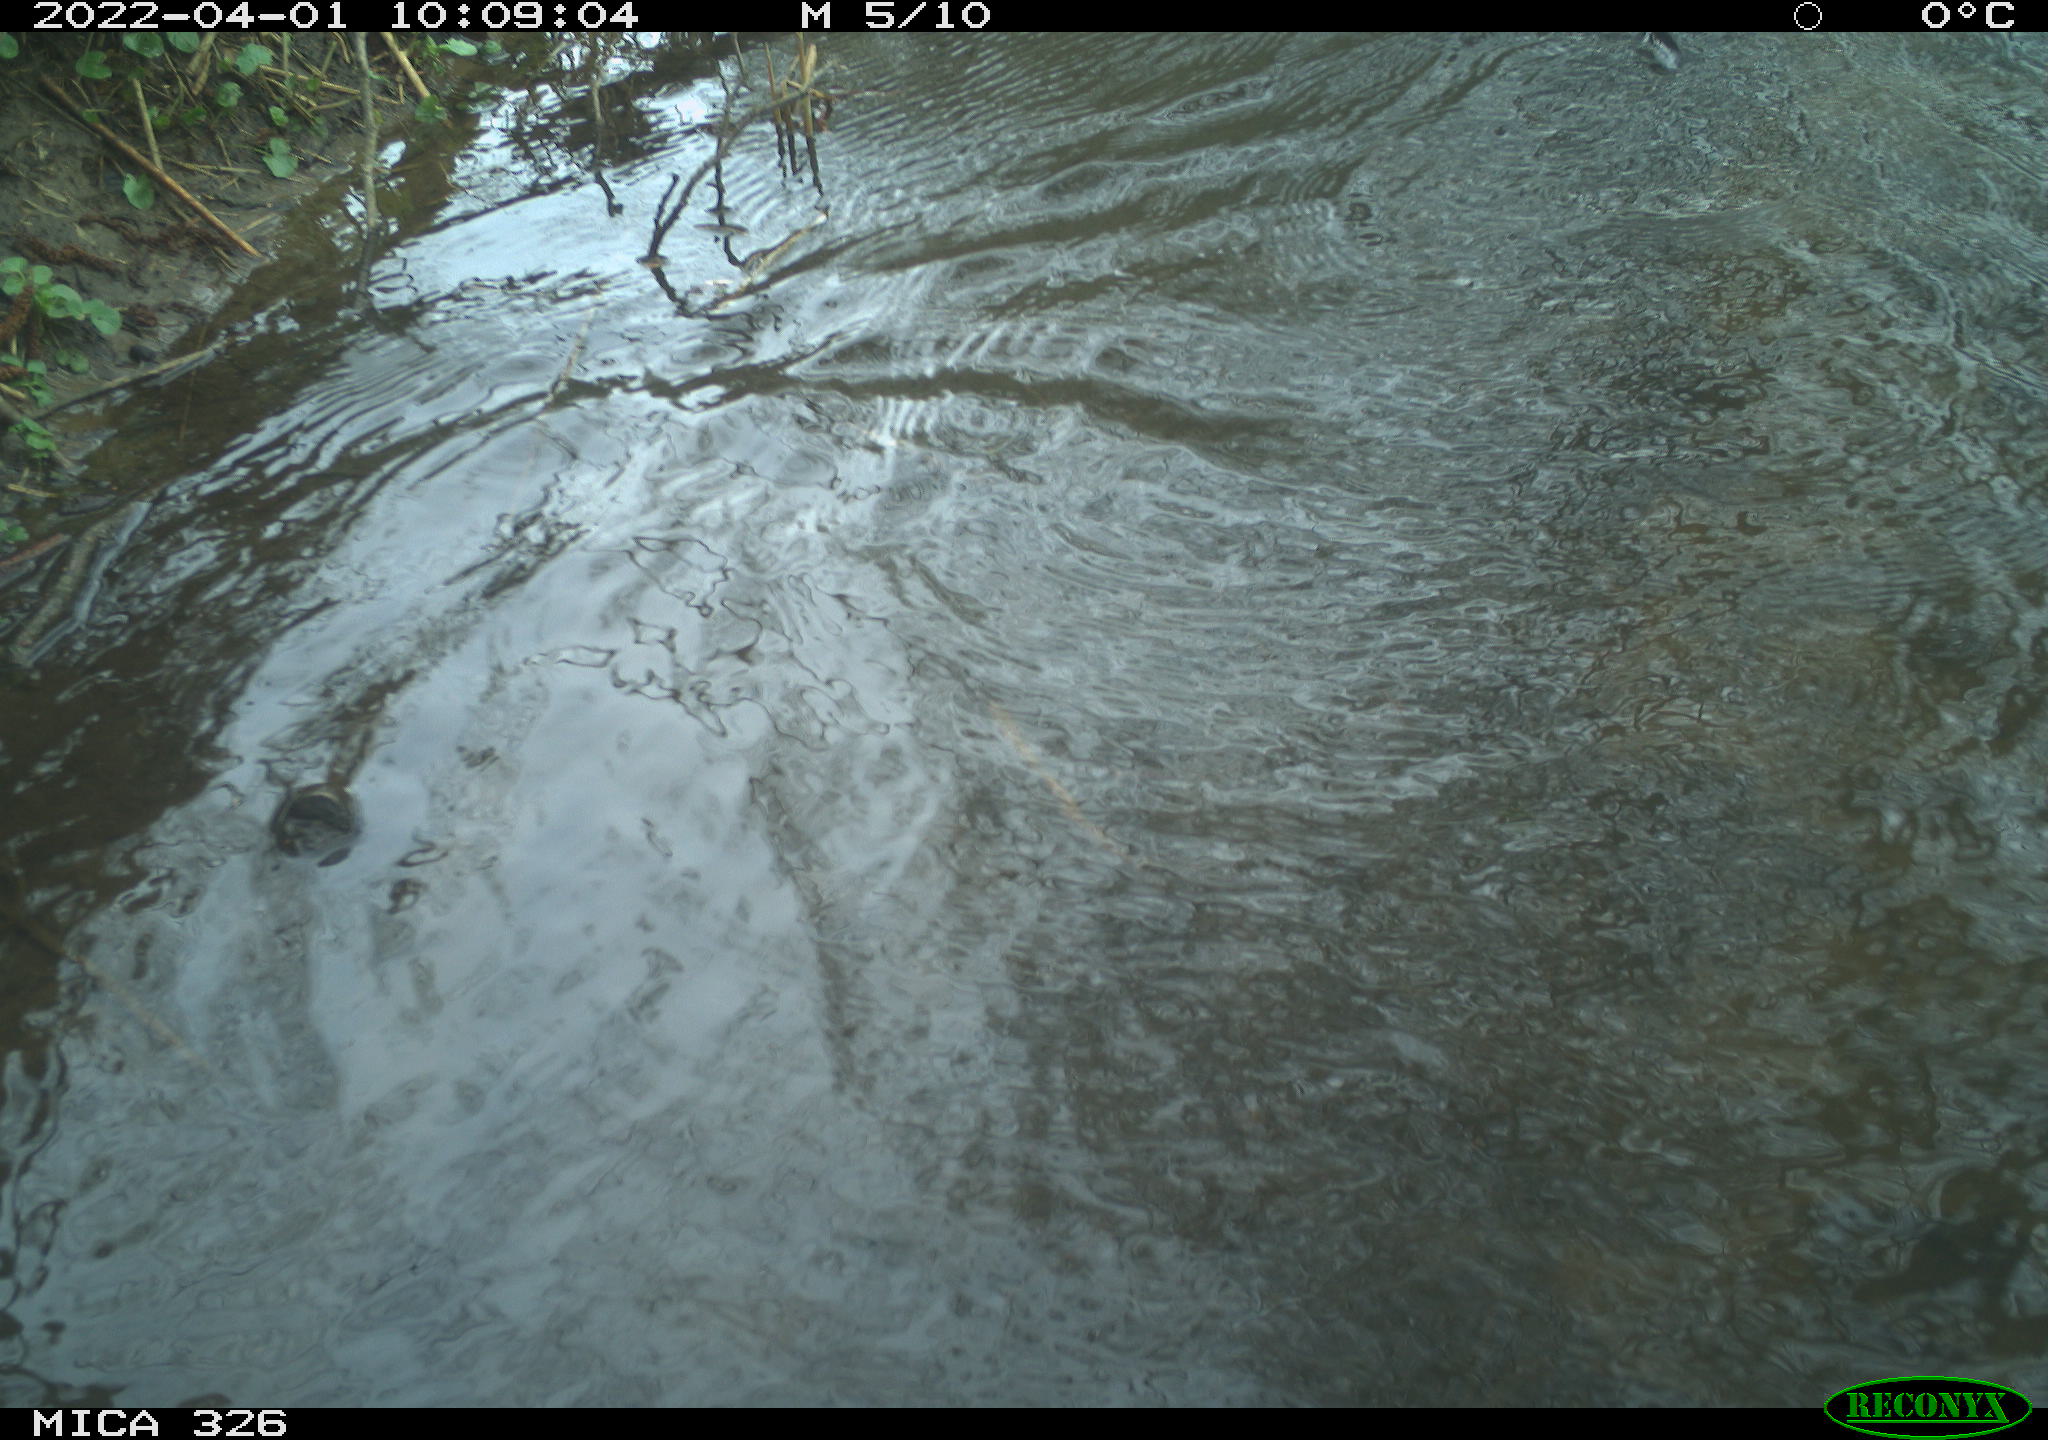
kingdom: Animalia
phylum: Chordata
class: Mammalia
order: Rodentia
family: Cricetidae
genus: Ondatra
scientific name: Ondatra zibethicus
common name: Muskrat
